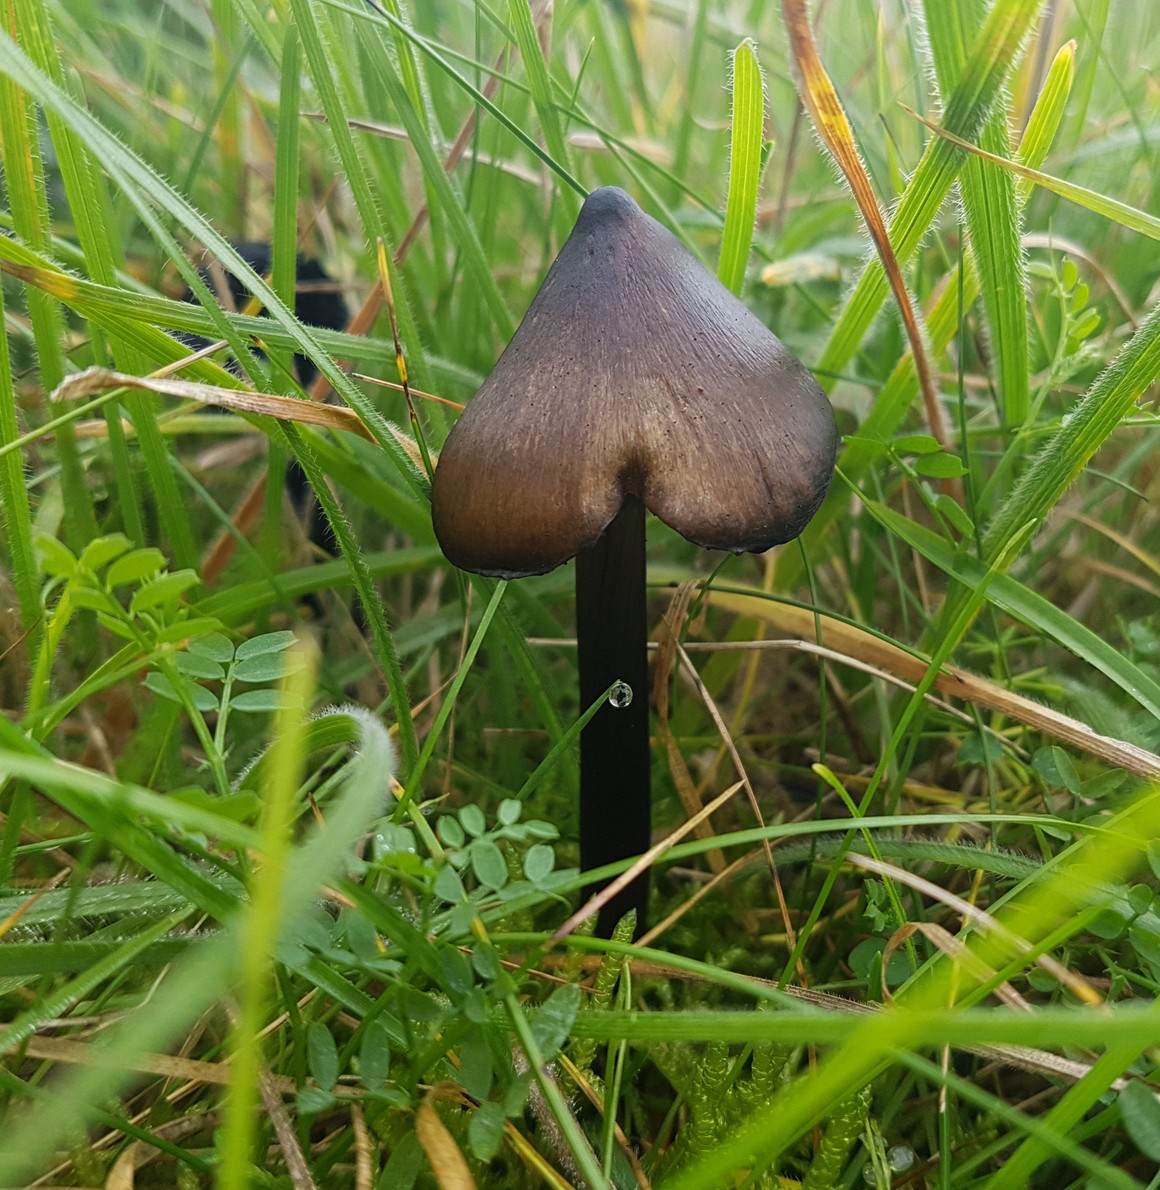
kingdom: Fungi
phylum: Basidiomycota
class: Agaricomycetes
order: Agaricales
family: Hygrophoraceae
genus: Hygrocybe
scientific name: Hygrocybe conica
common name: kegle-vokshat
